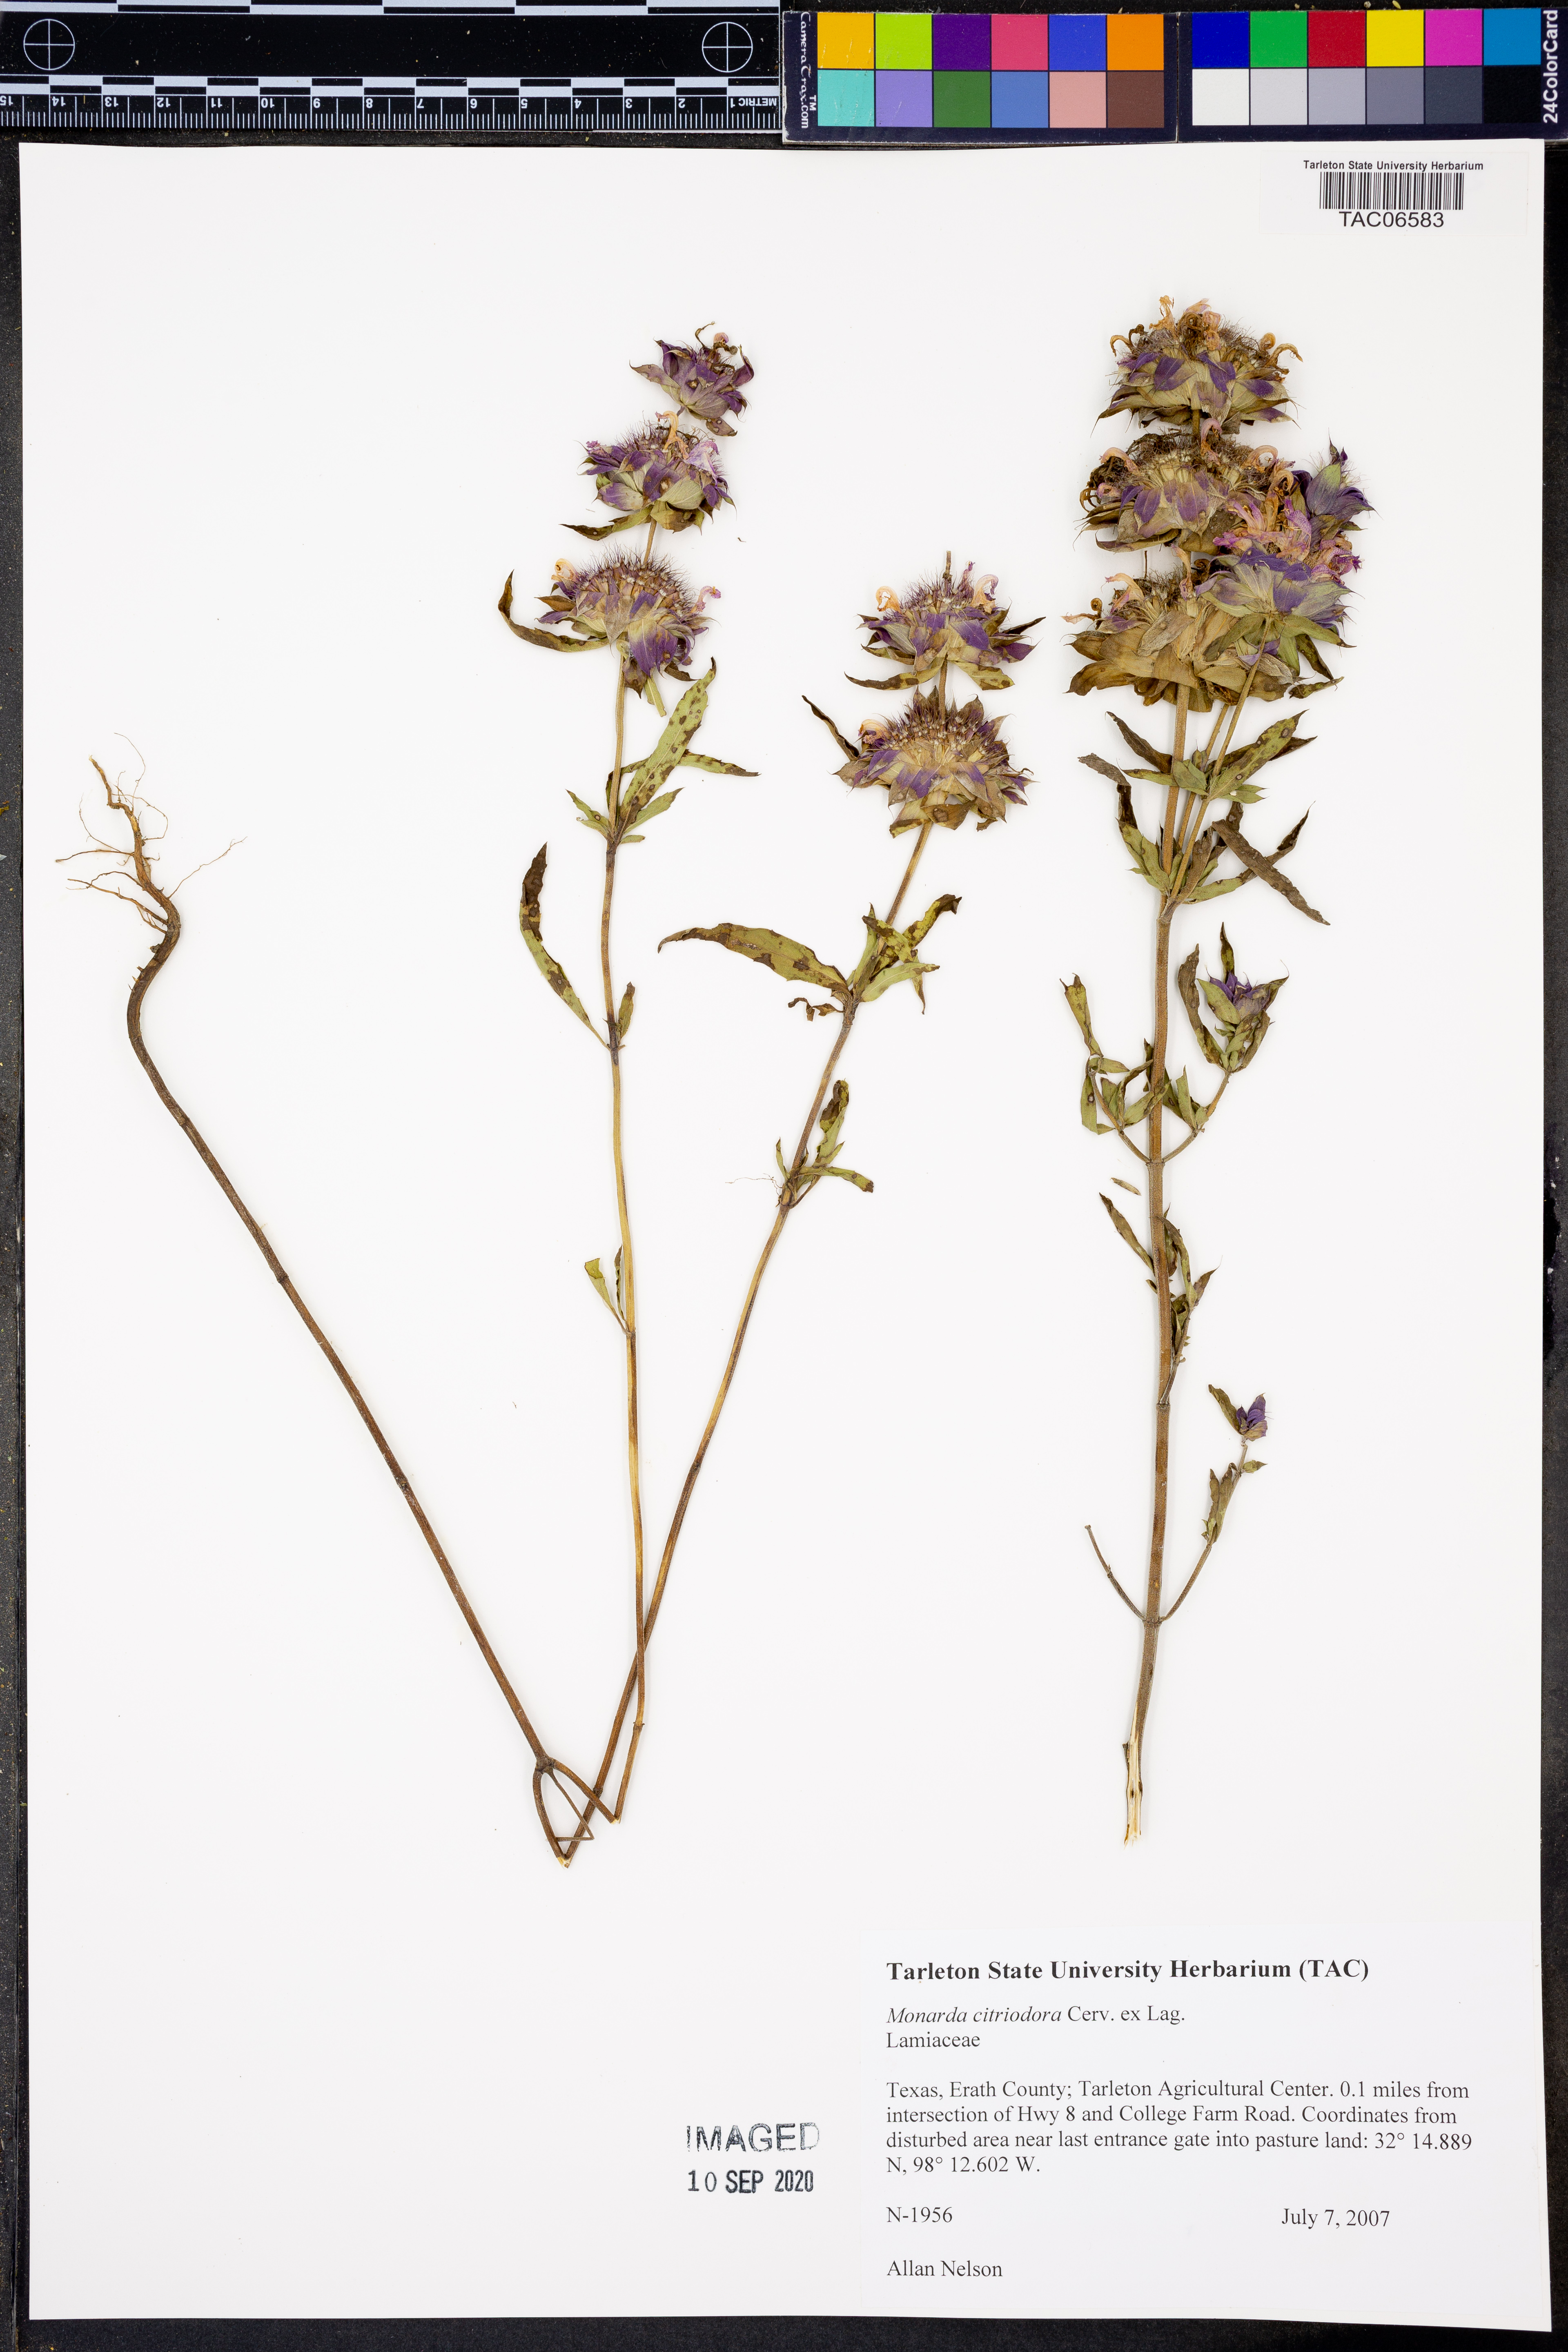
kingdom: Plantae
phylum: Tracheophyta
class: Magnoliopsida
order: Lamiales
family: Lamiaceae
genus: Monarda
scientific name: Monarda citriodora
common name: Lemon beebalm
